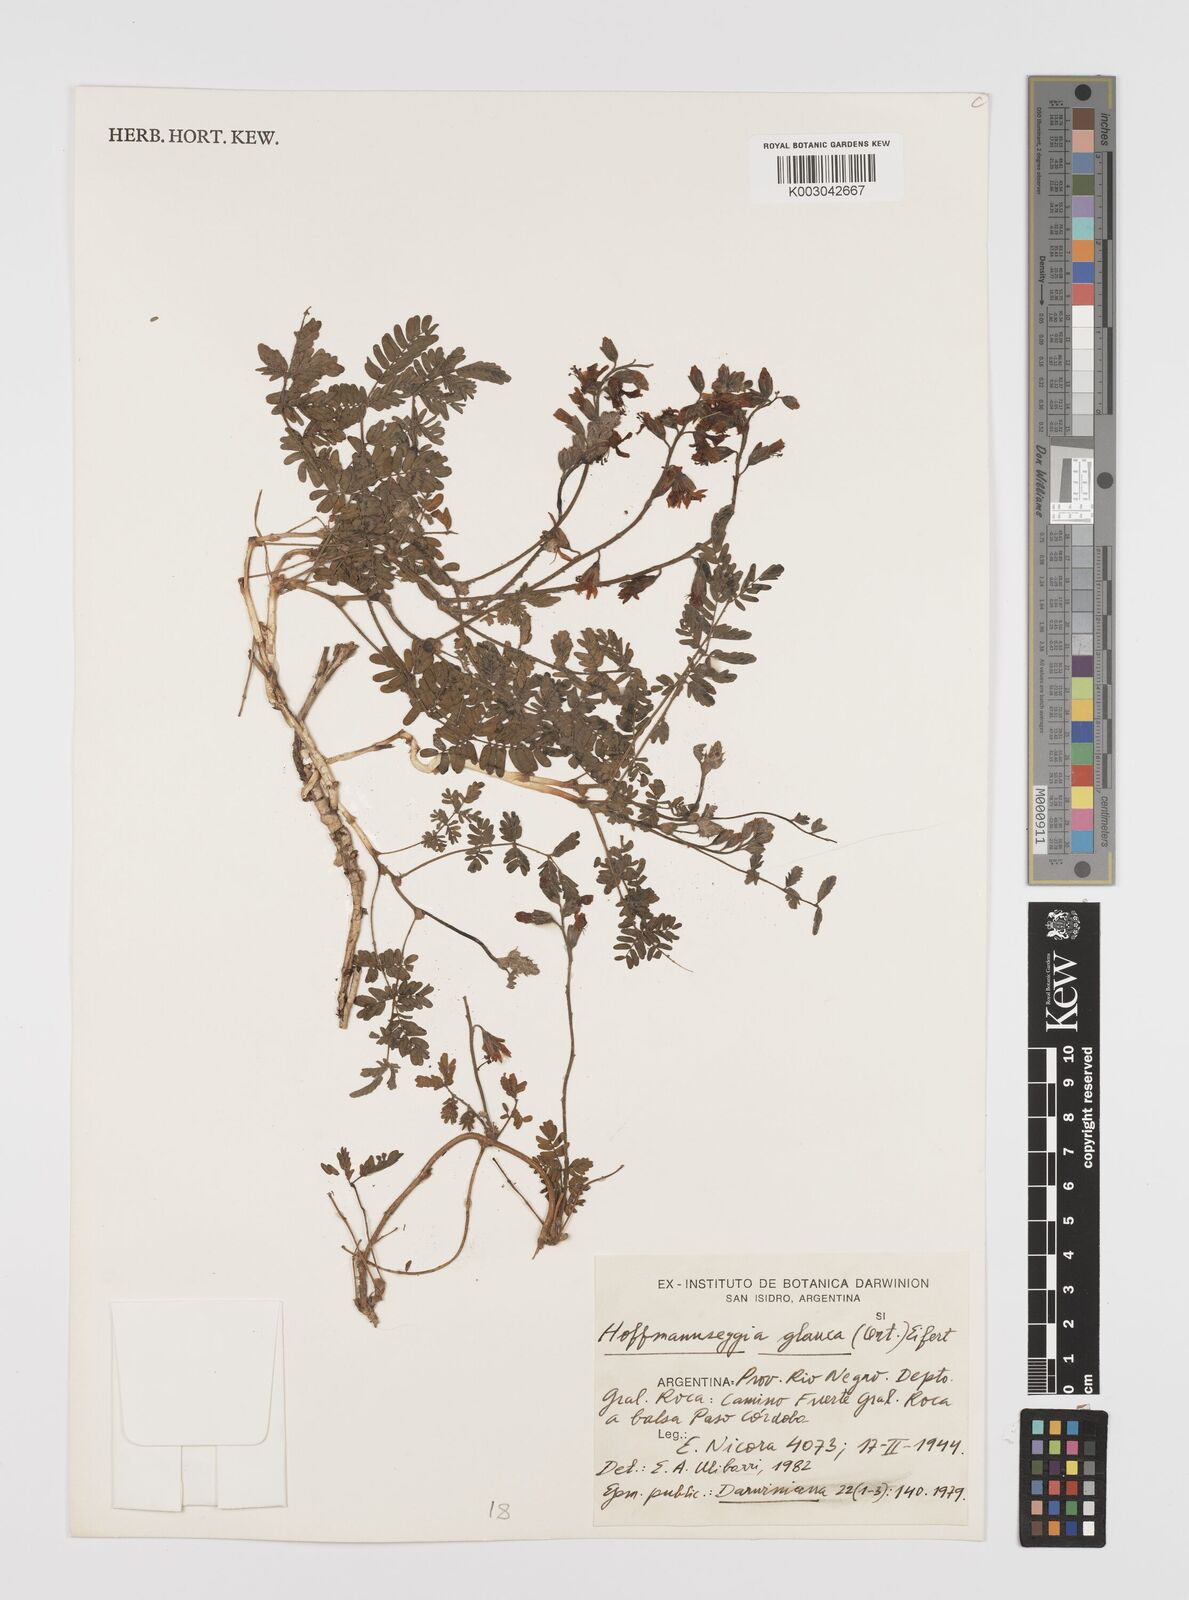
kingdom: Plantae
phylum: Tracheophyta
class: Magnoliopsida
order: Fabales
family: Fabaceae
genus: Hoffmannseggia
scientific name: Hoffmannseggia glauca
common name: Pignut
